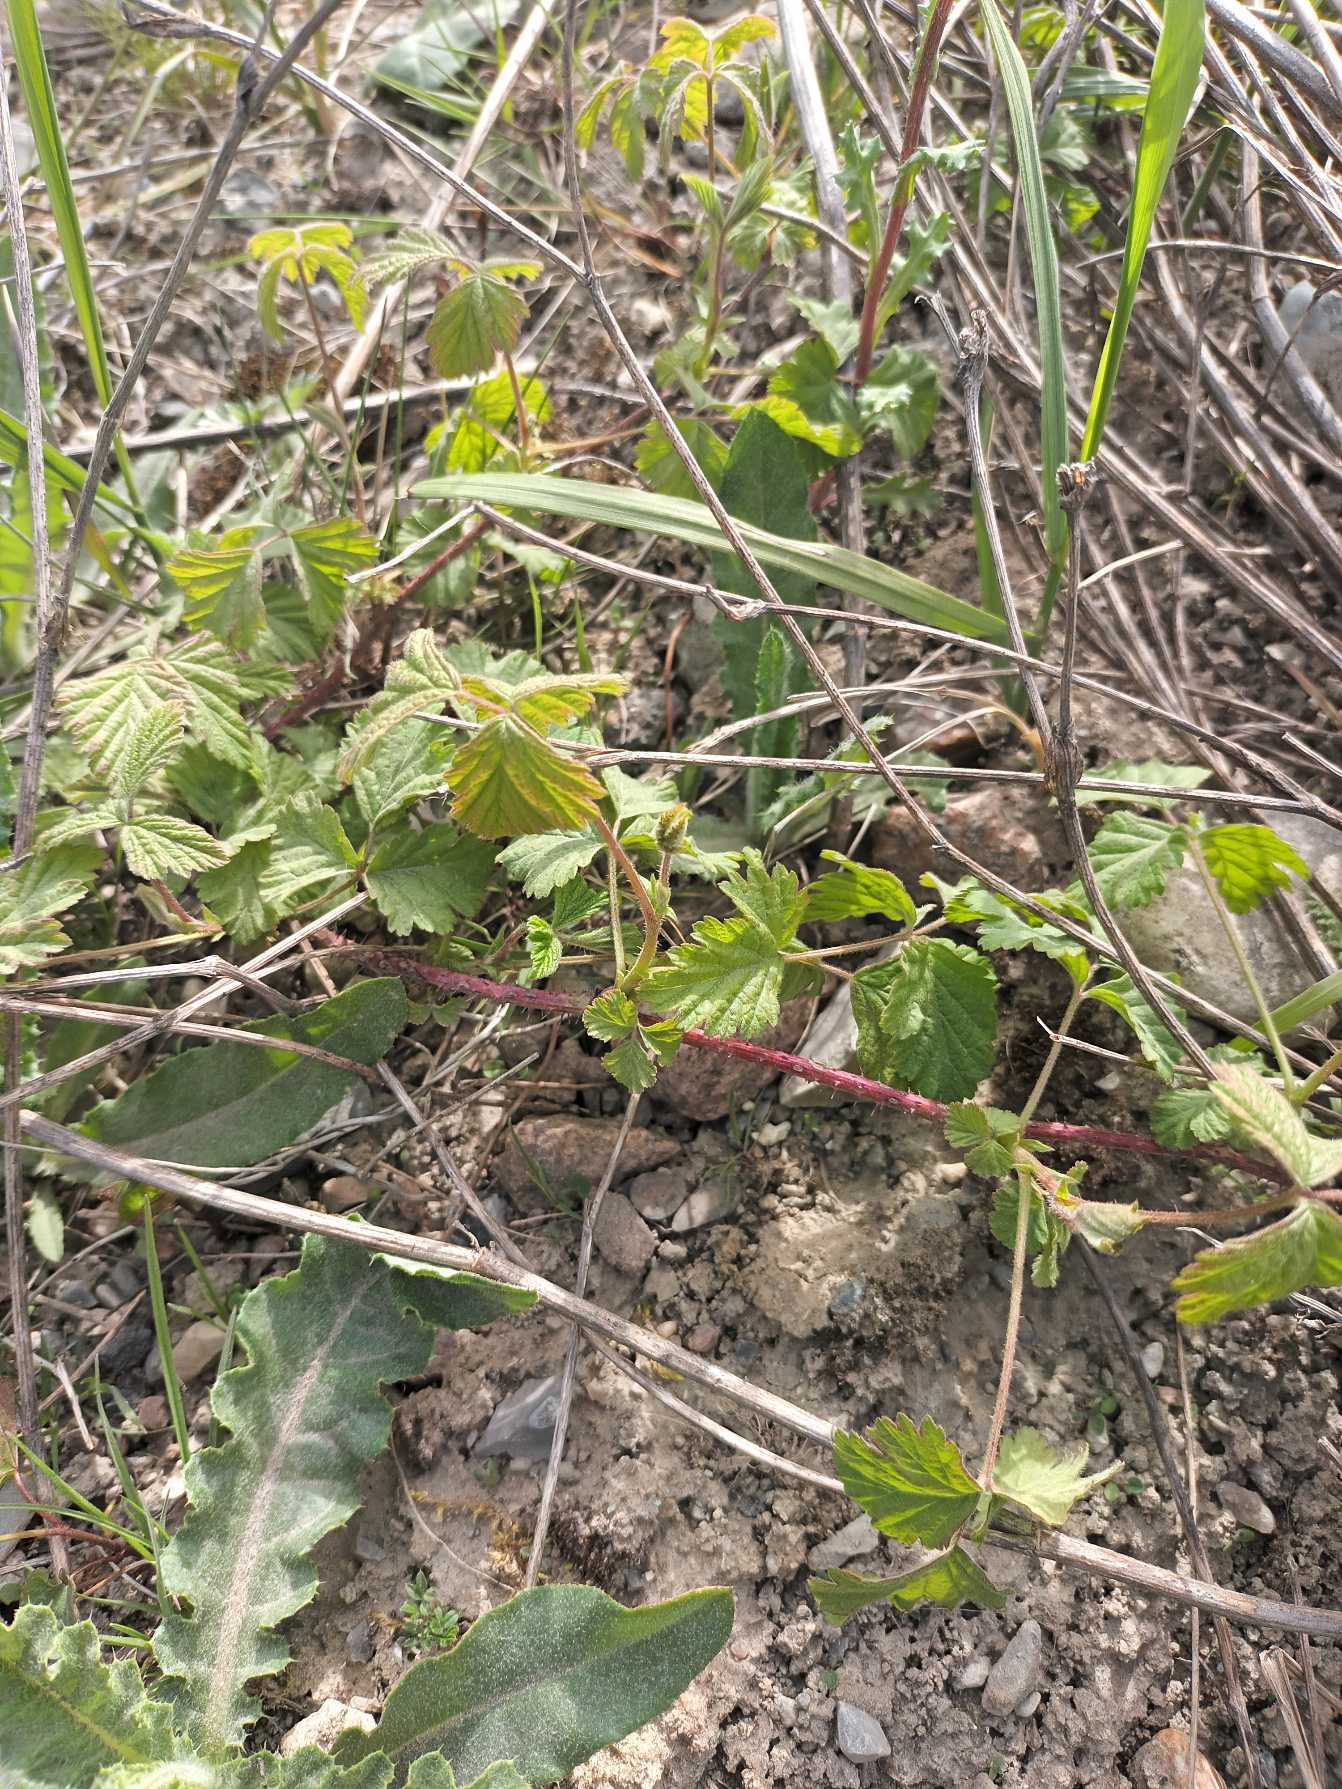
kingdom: Plantae
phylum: Tracheophyta
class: Magnoliopsida
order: Rosales
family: Rosaceae
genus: Rubus
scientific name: Rubus caesius
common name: Korbær
